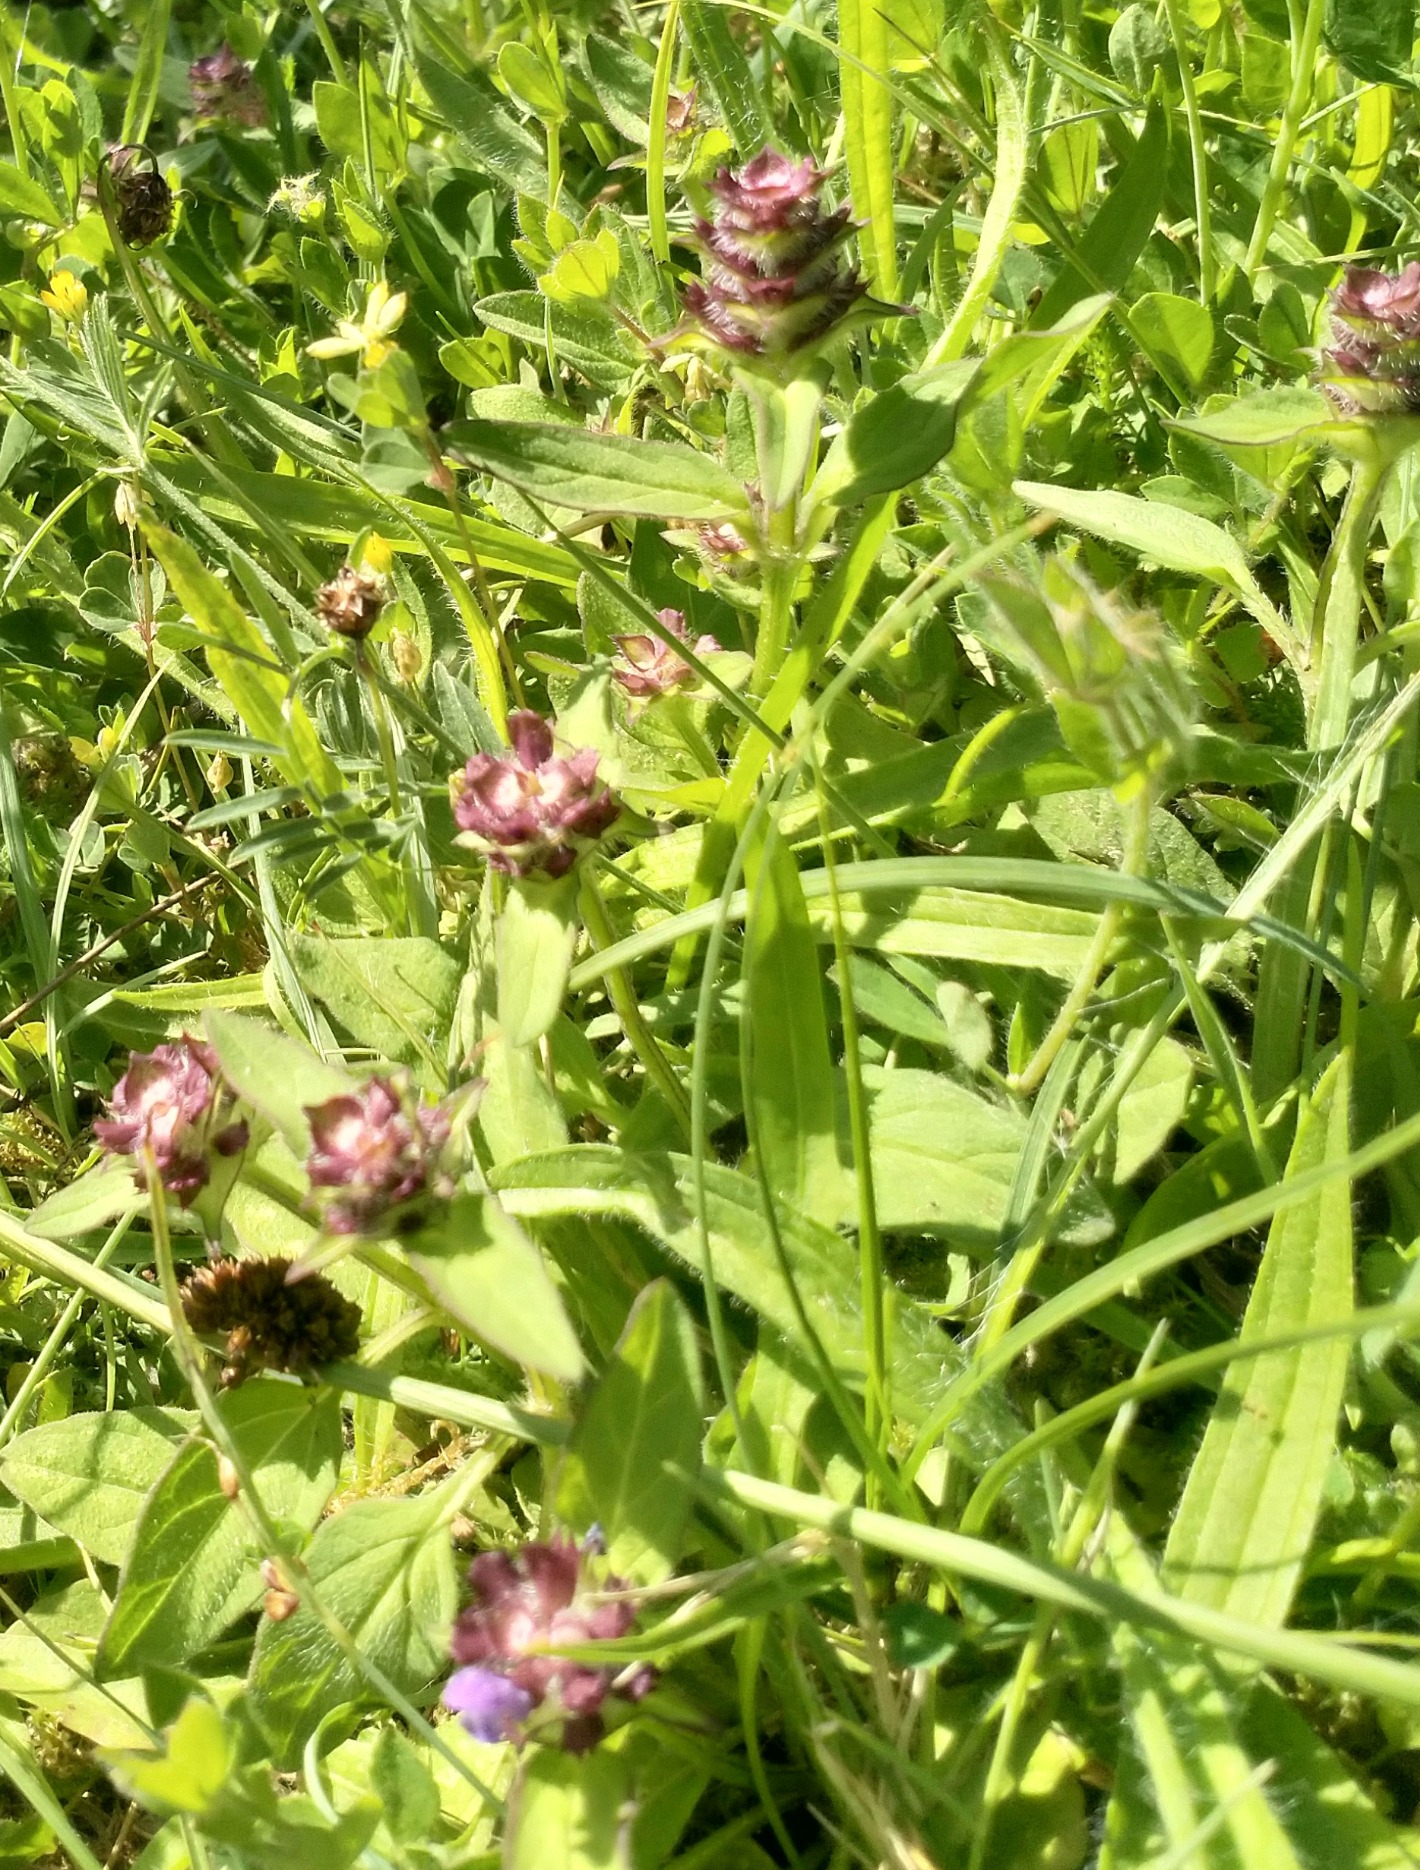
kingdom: Plantae
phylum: Tracheophyta
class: Magnoliopsida
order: Lamiales
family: Lamiaceae
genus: Prunella
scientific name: Prunella vulgaris
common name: Almindelig brunelle
